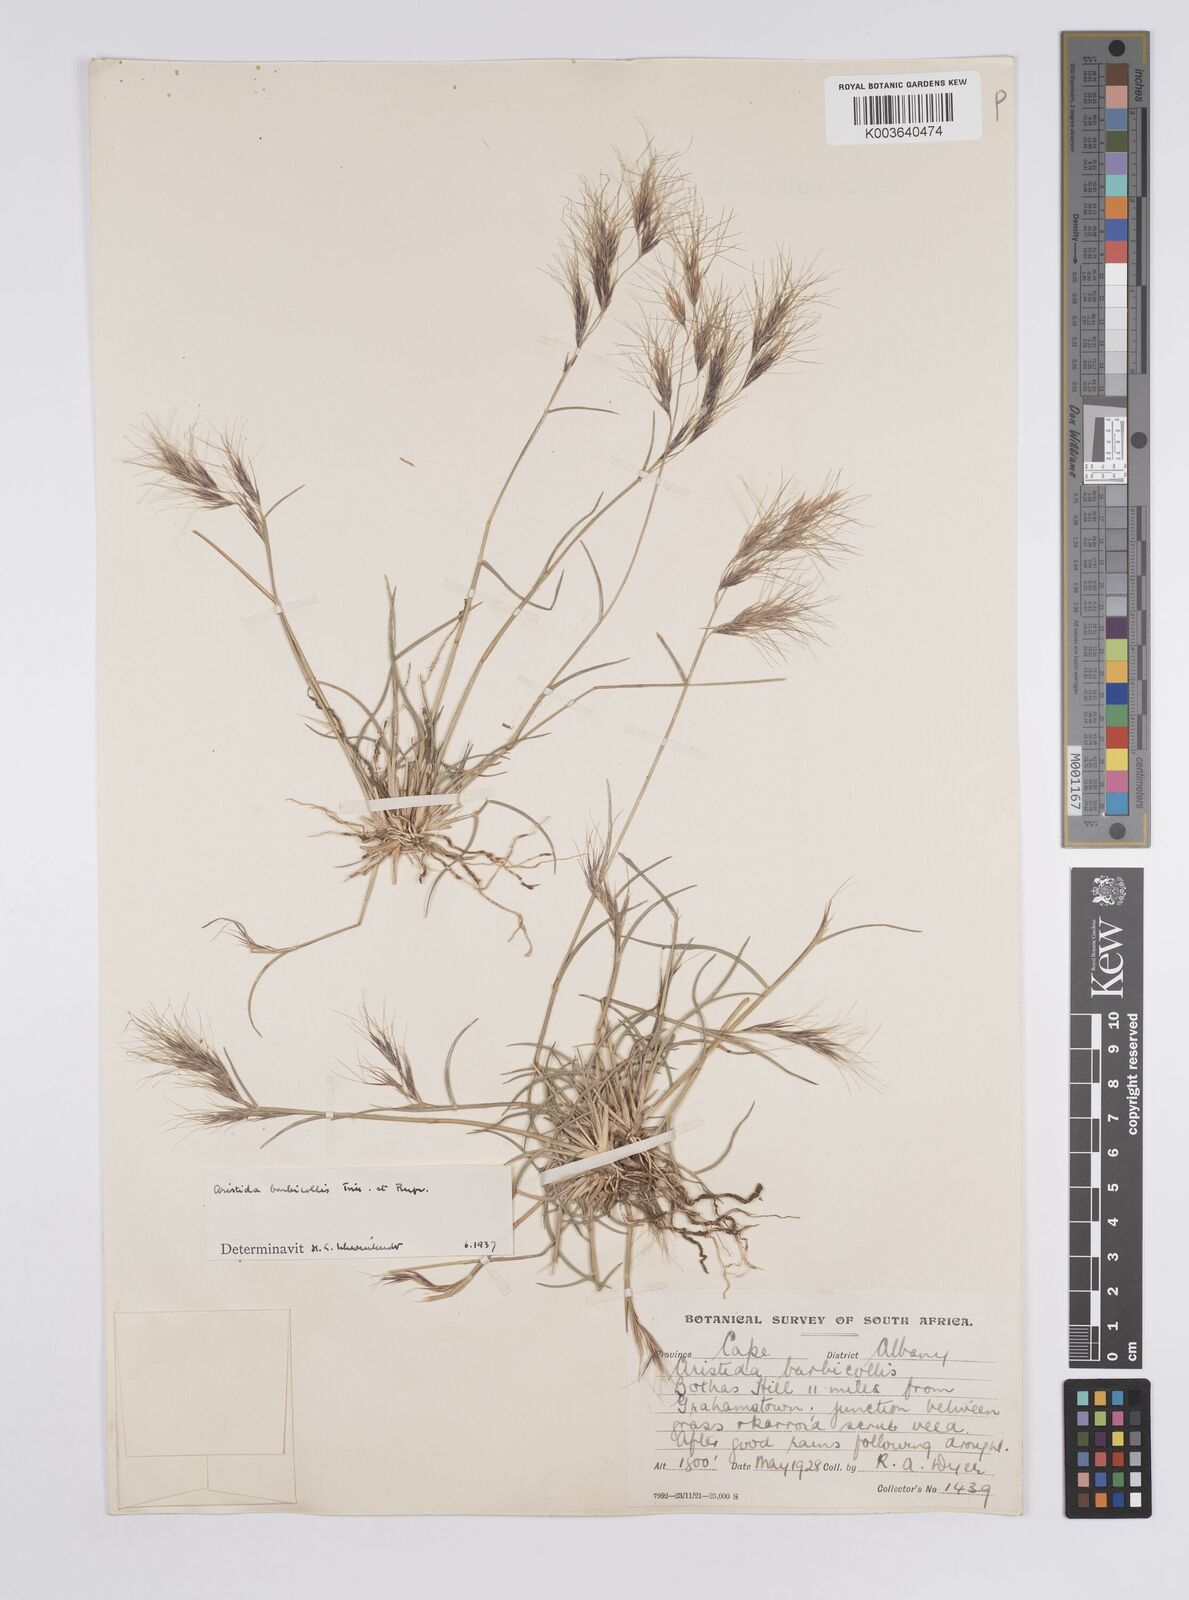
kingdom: Plantae
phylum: Tracheophyta
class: Liliopsida
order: Poales
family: Poaceae
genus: Aristida
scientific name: Aristida barbicollis
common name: Spreading prickle grass
